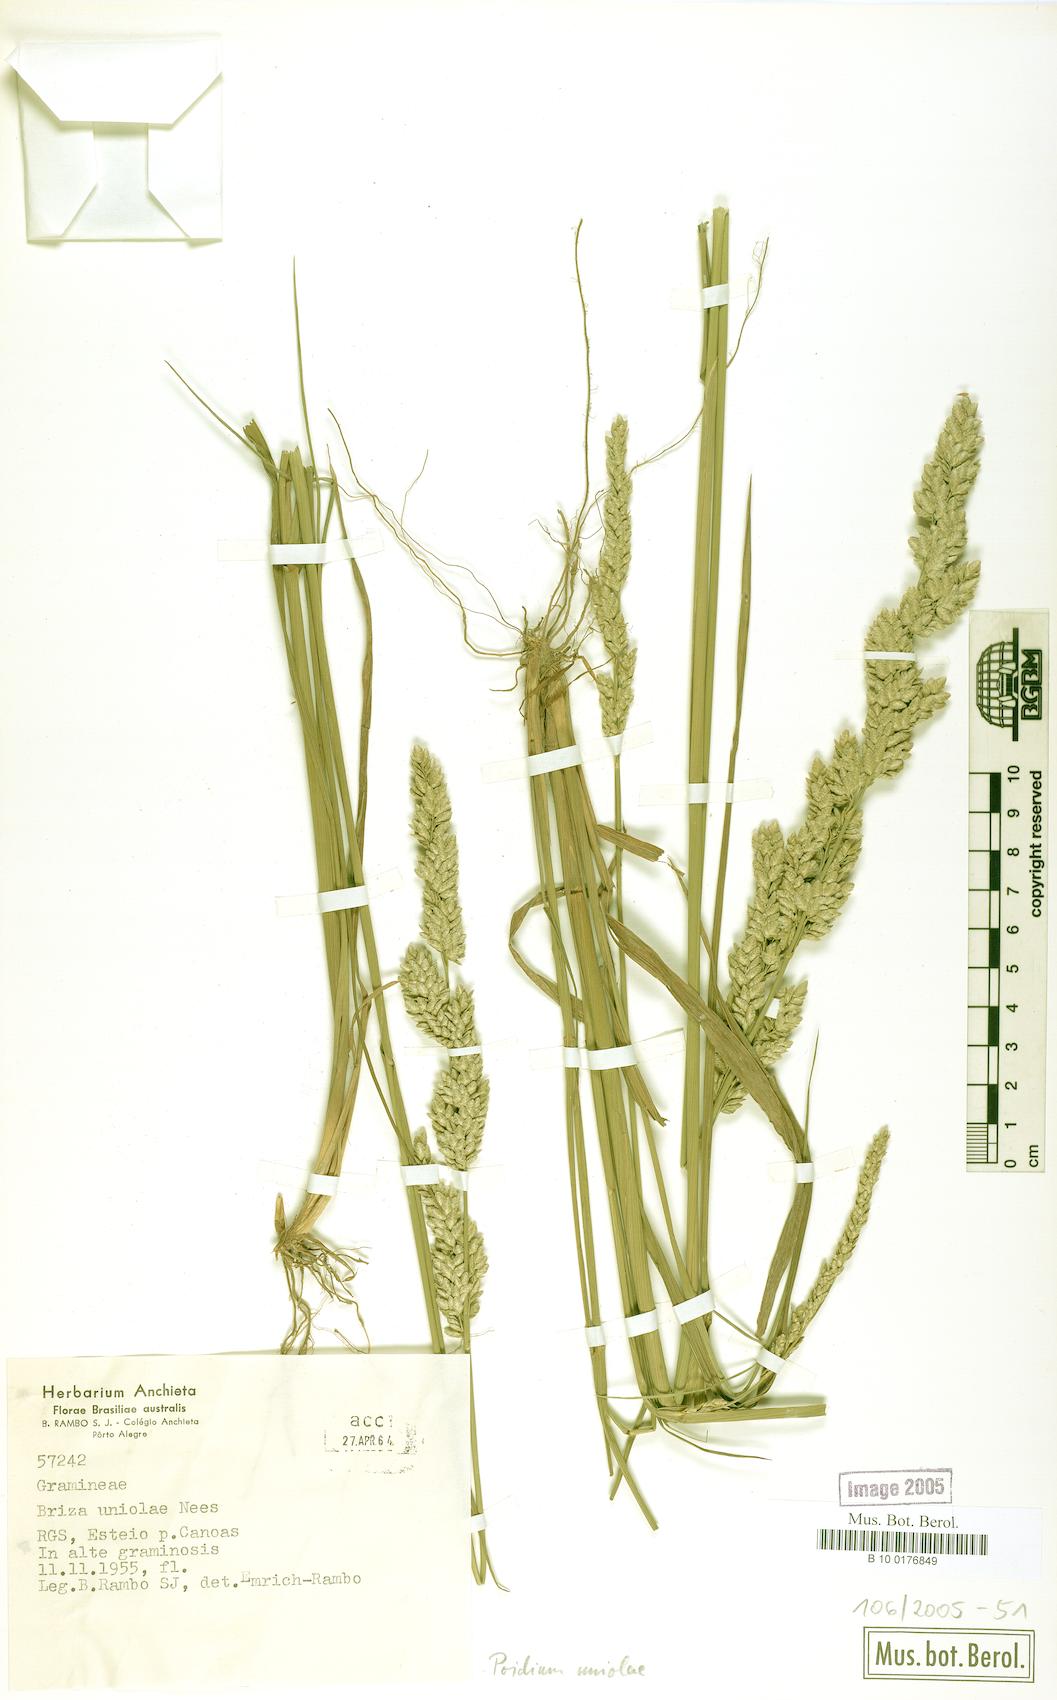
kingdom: Plantae
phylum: Tracheophyta
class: Liliopsida
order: Poales
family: Poaceae
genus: Poidium
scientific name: Poidium uniolae
